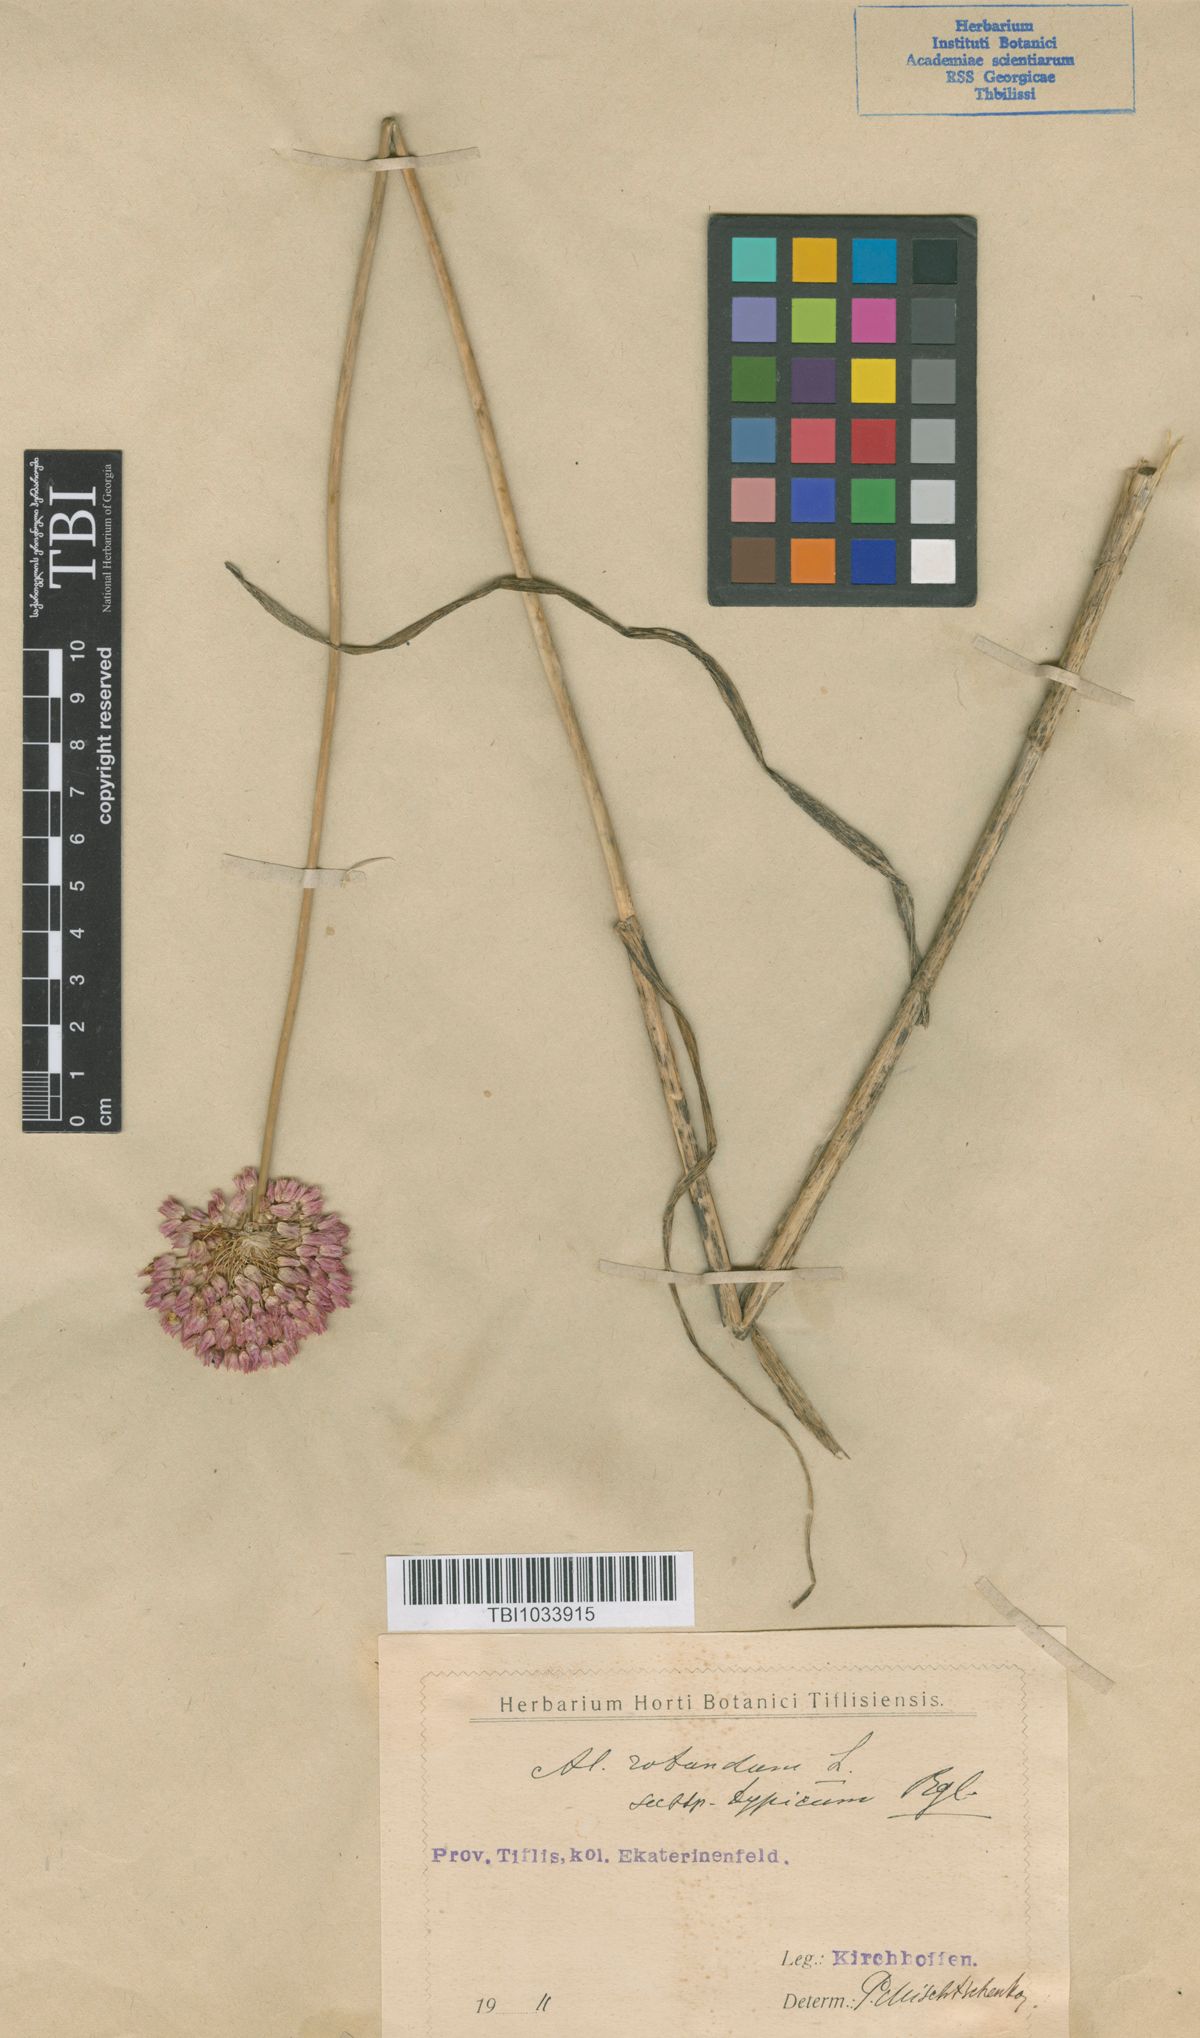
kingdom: Plantae
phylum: Tracheophyta
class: Liliopsida
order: Asparagales
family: Amaryllidaceae
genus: Allium
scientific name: Allium rotundum
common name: Sand leek
